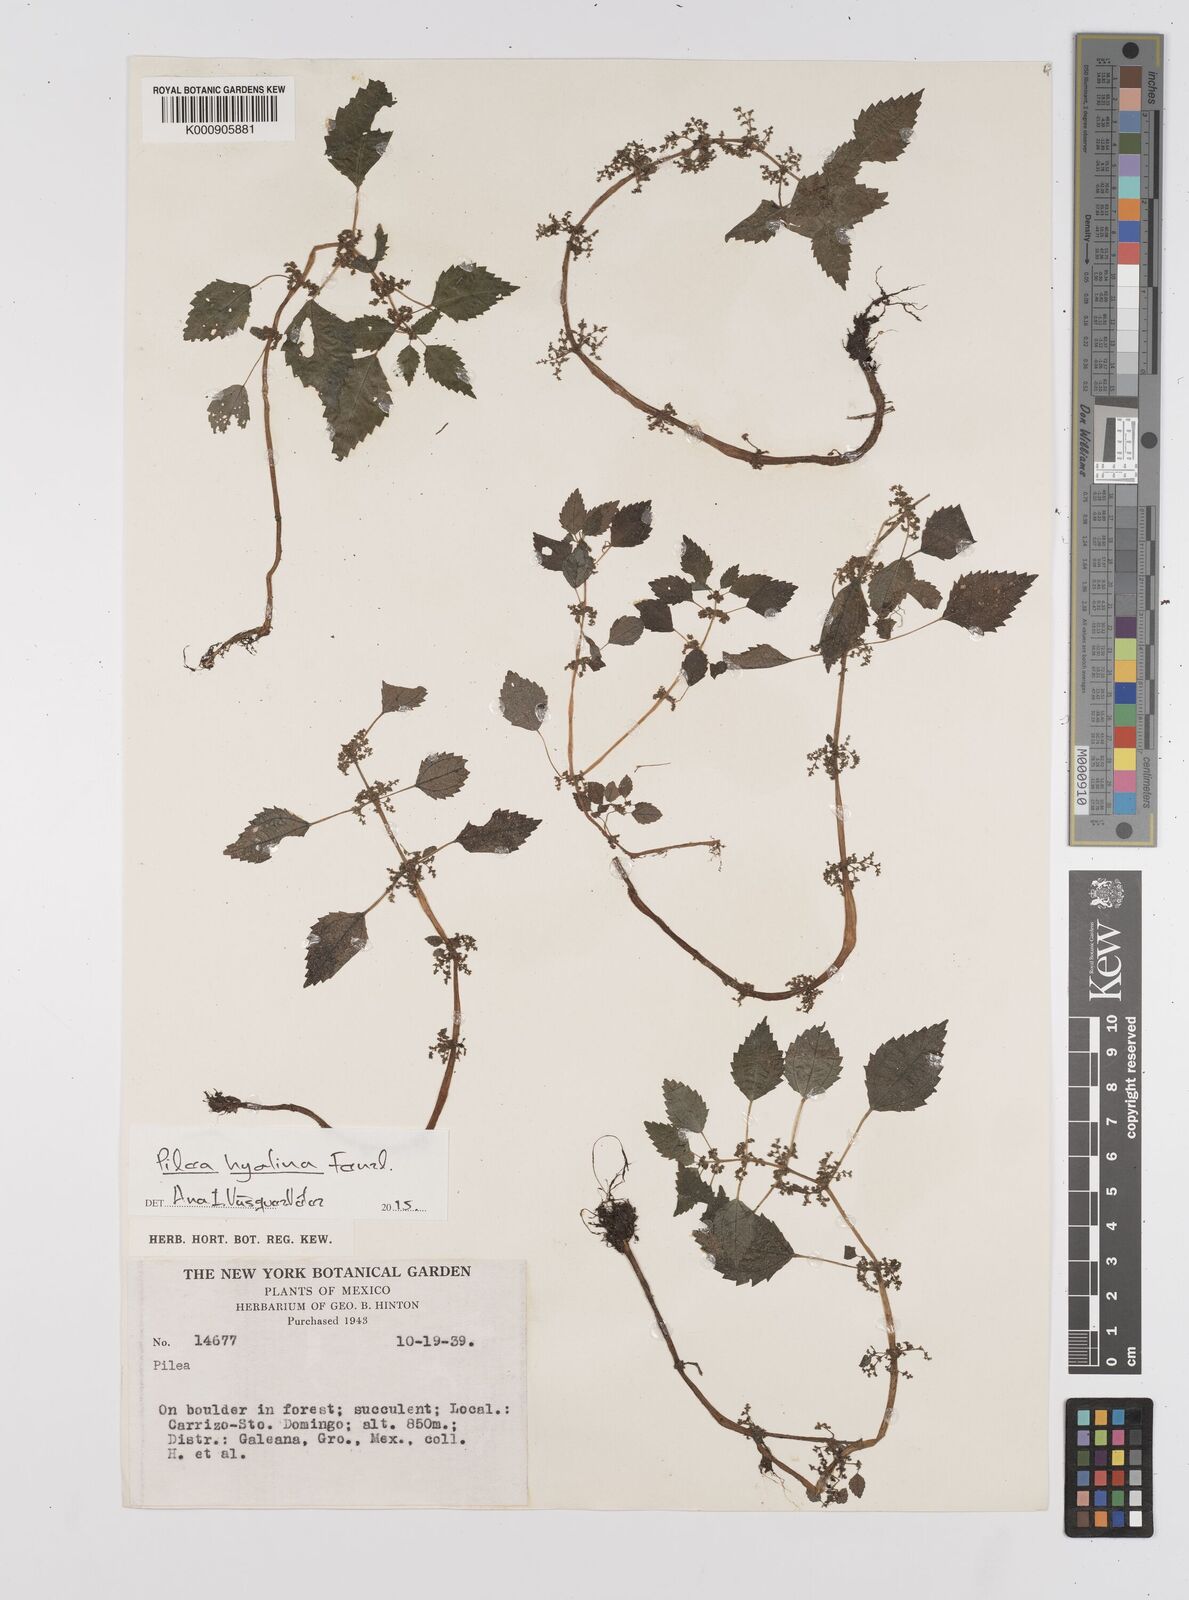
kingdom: Plantae
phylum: Tracheophyta
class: Magnoliopsida
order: Rosales
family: Urticaceae
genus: Pilea
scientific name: Pilea hyalina
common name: Virdrillo
